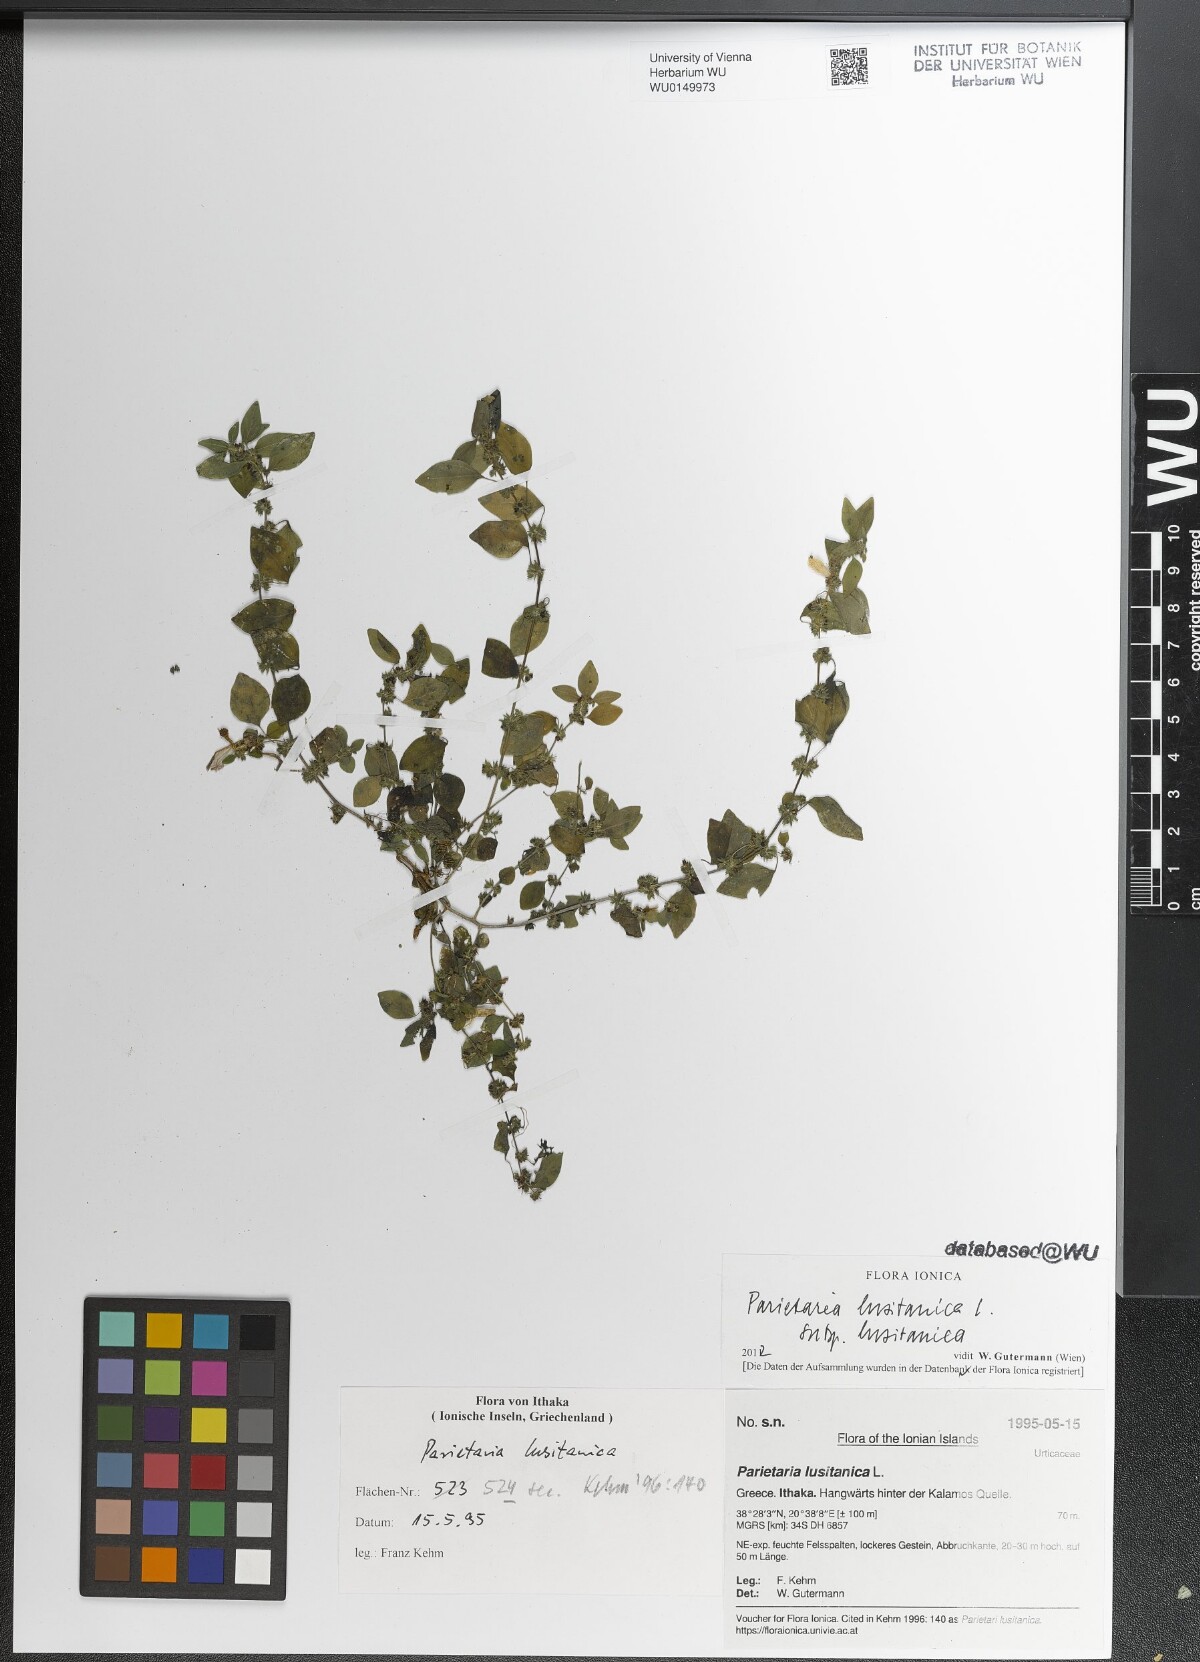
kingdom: Plantae
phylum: Tracheophyta
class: Magnoliopsida
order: Rosales
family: Urticaceae
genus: Parietaria
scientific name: Parietaria lusitanica
